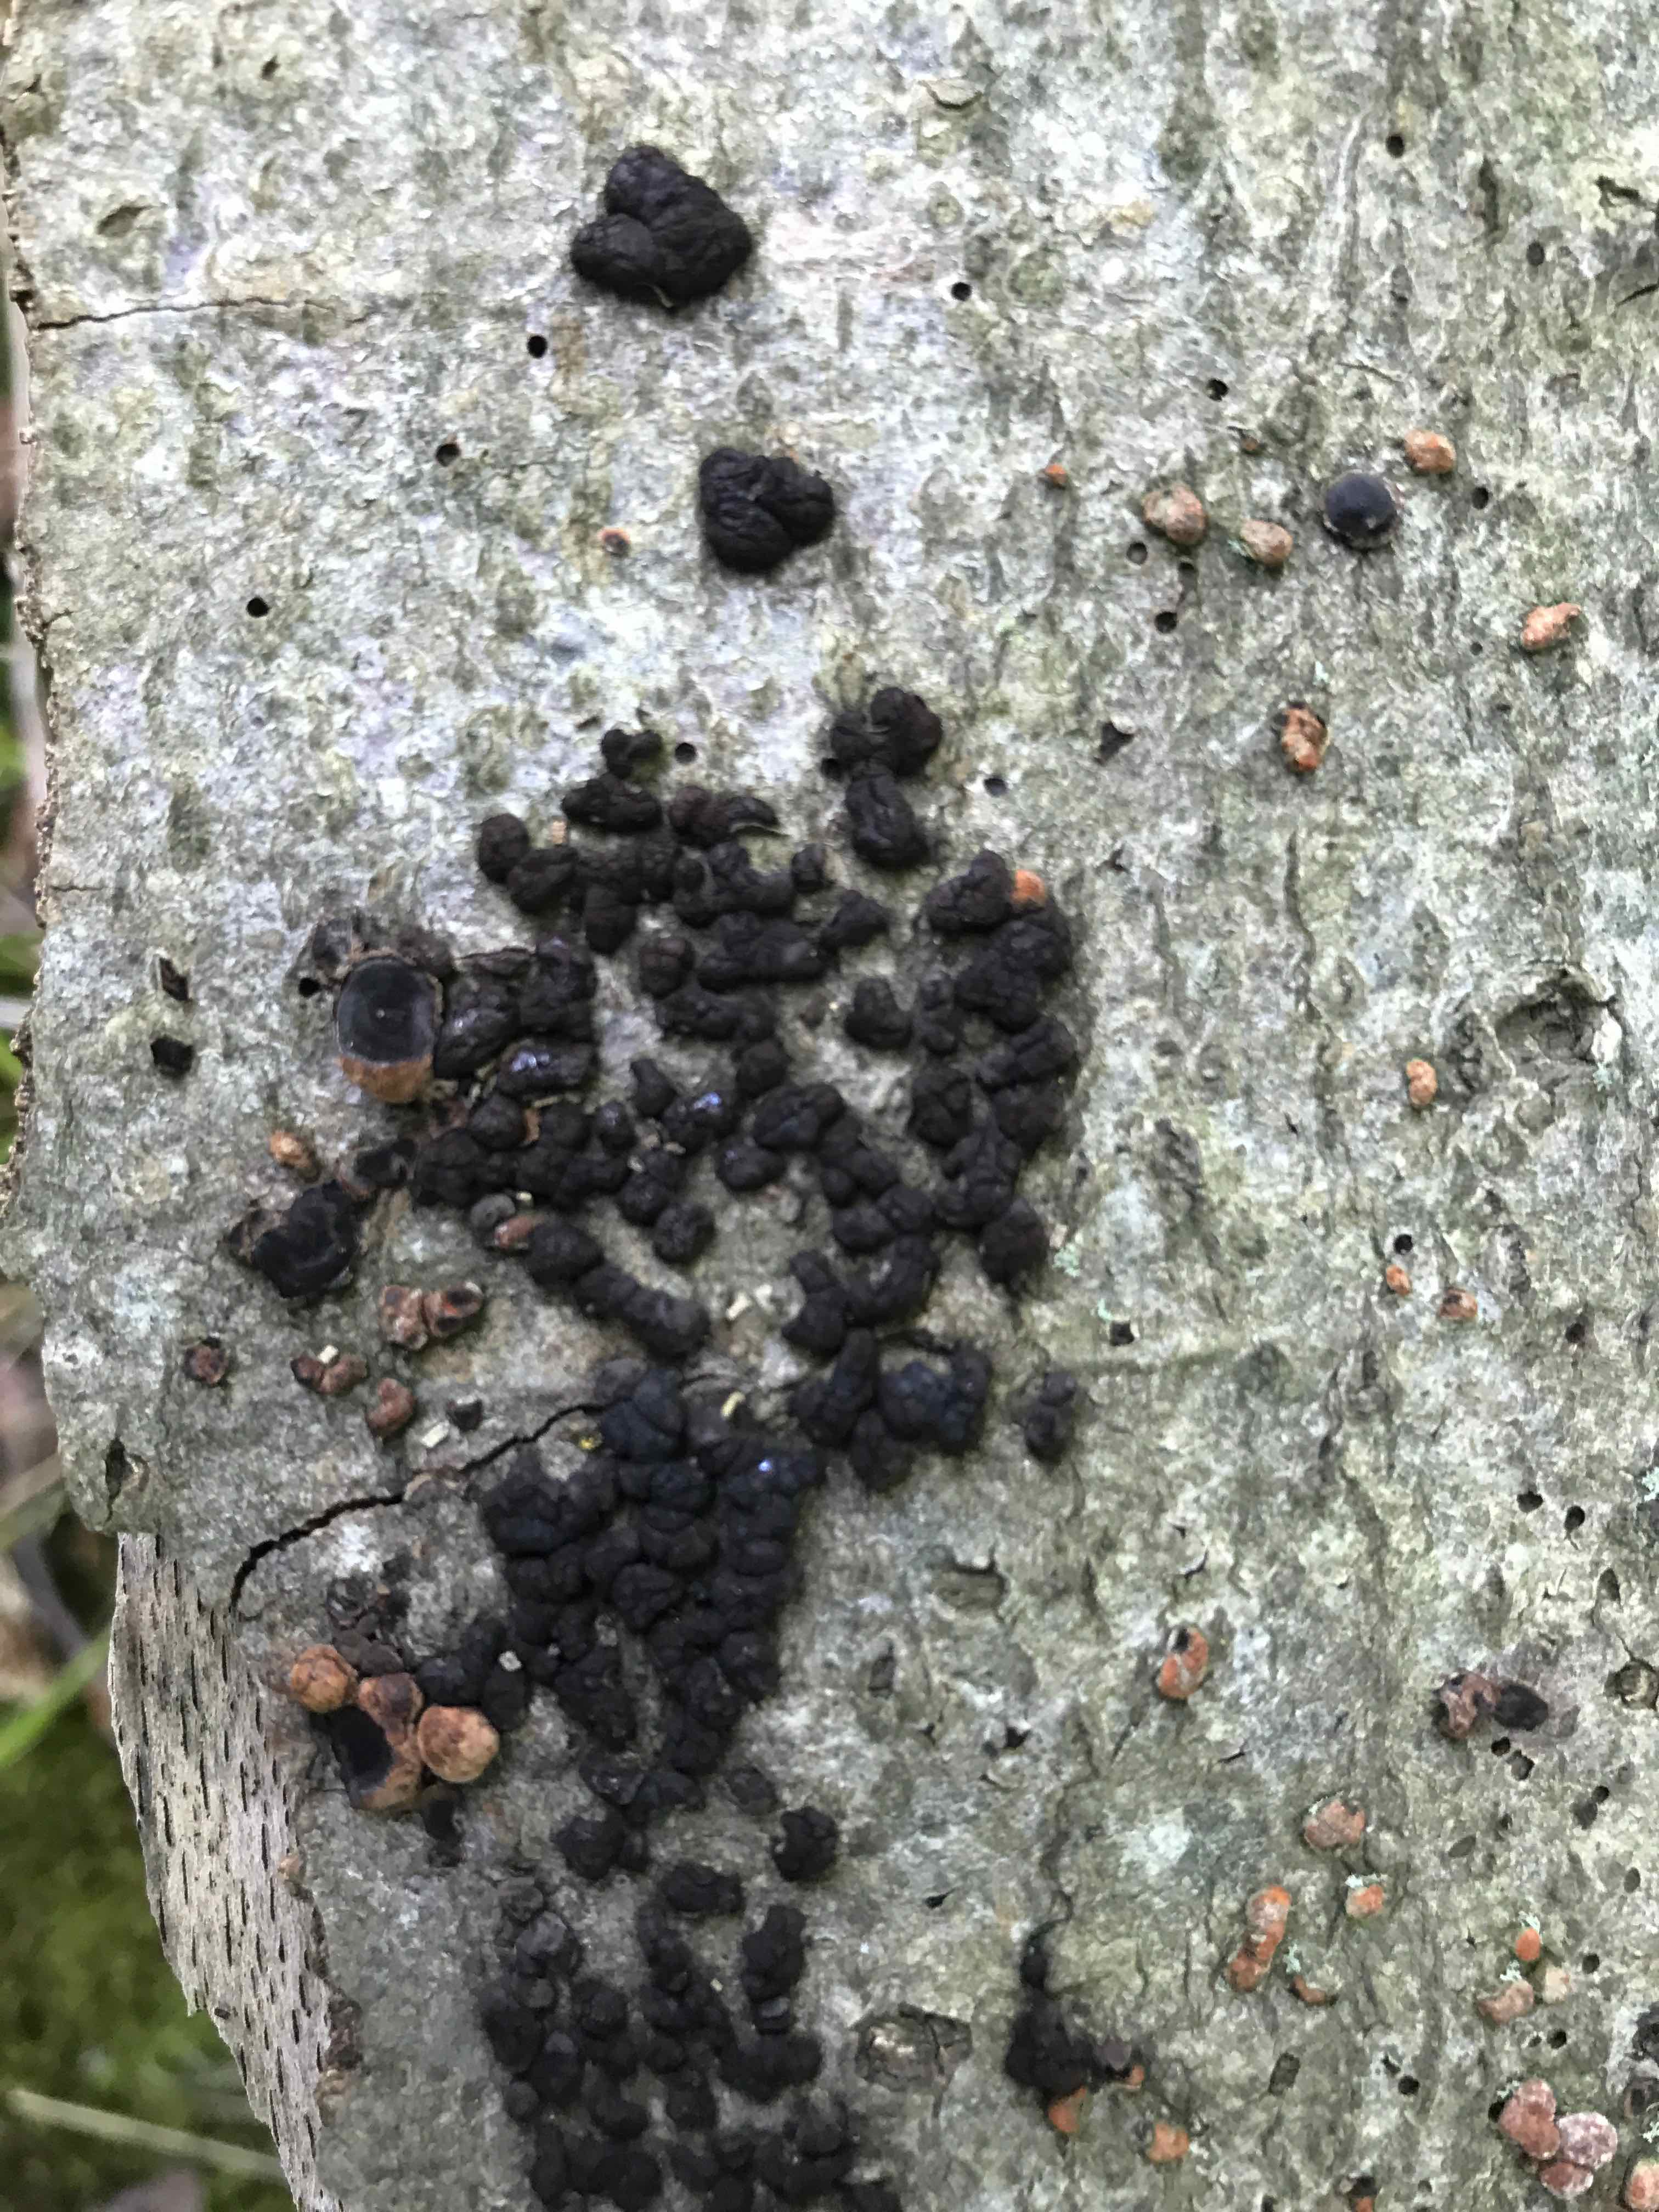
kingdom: Fungi
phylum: Ascomycota
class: Sordariomycetes
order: Xylariales
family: Hypoxylaceae
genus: Jackrogersella
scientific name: Jackrogersella cohaerens
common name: sammenflydende kulbær
